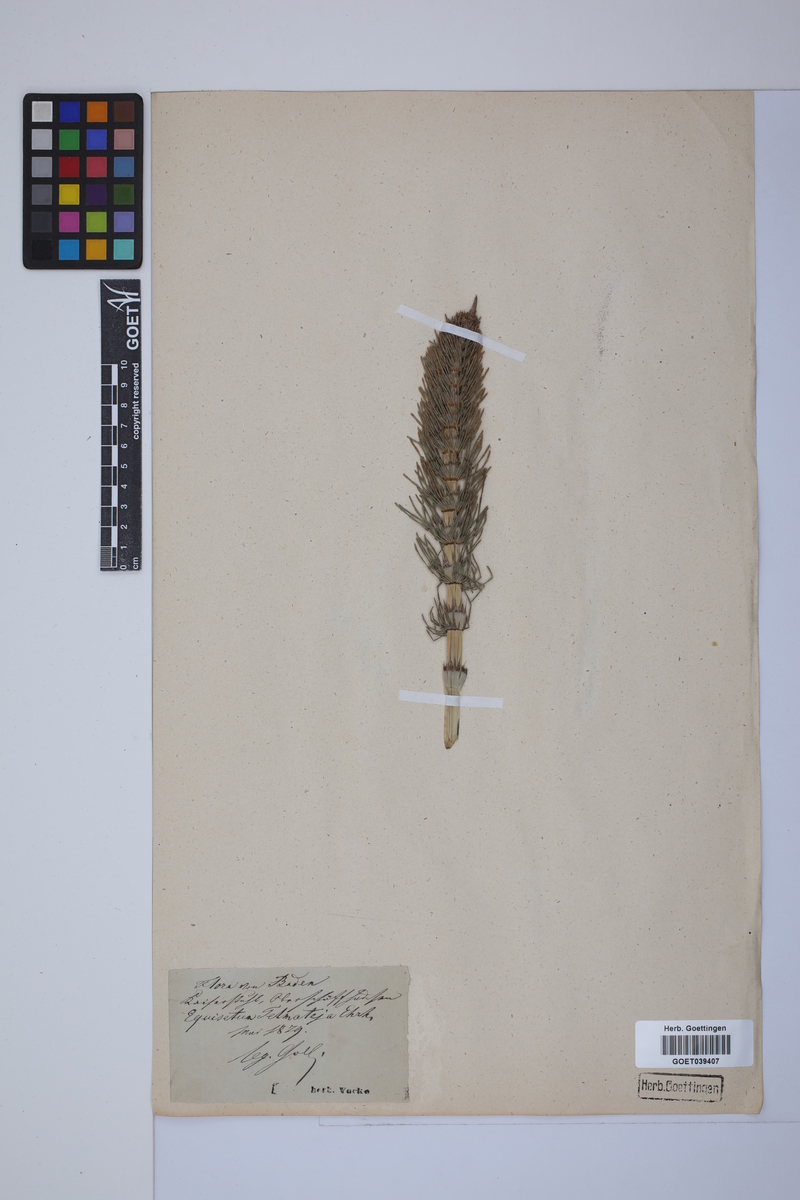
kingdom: Plantae
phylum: Tracheophyta
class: Polypodiopsida
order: Equisetales
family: Equisetaceae
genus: Equisetum
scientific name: Equisetum telmateia
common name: Great horsetail
